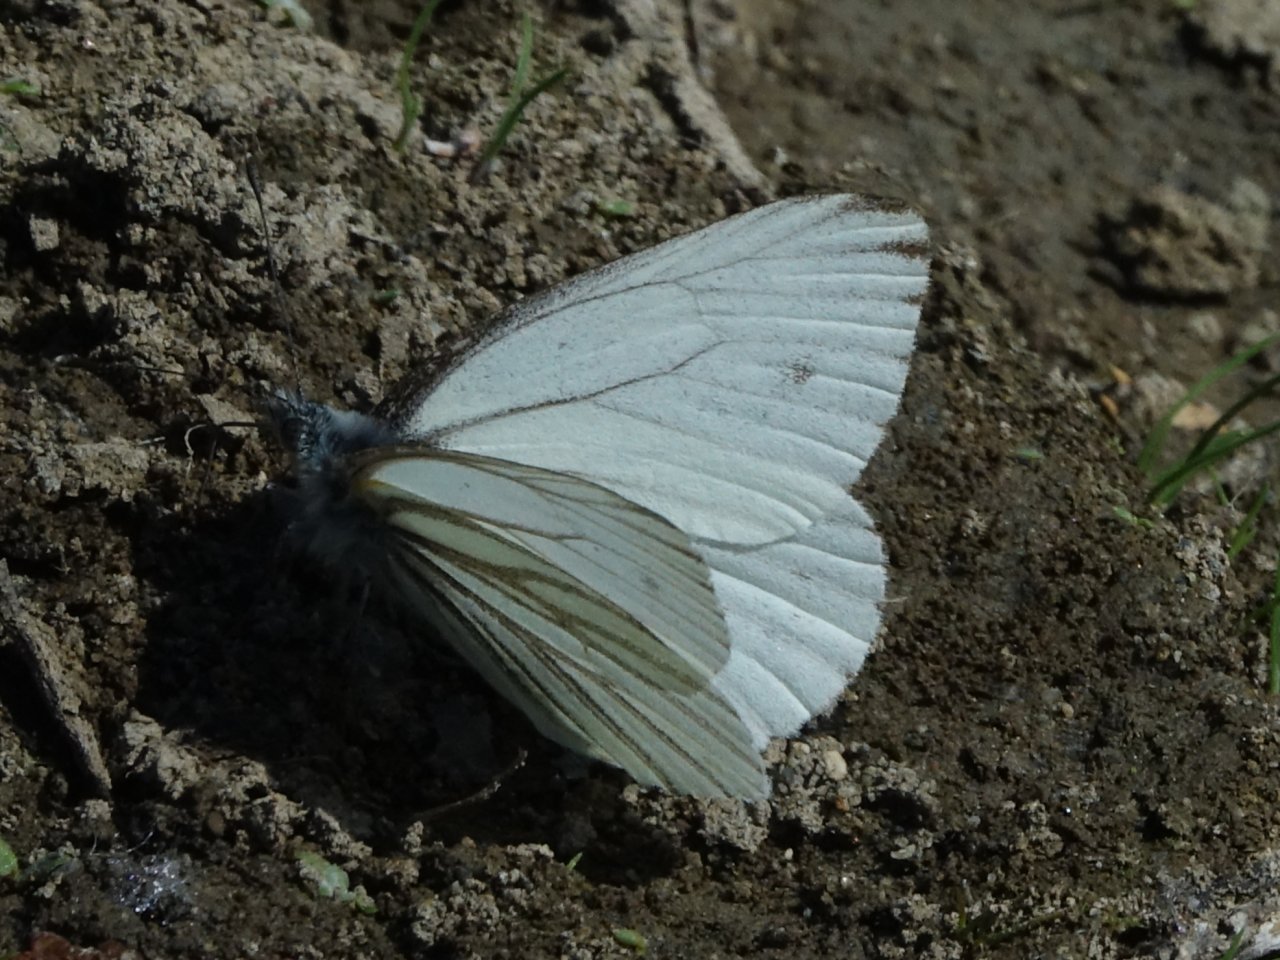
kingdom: Animalia
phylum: Arthropoda
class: Insecta
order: Lepidoptera
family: Pieridae
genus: Pieris
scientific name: Pieris marginalis
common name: Margined White
